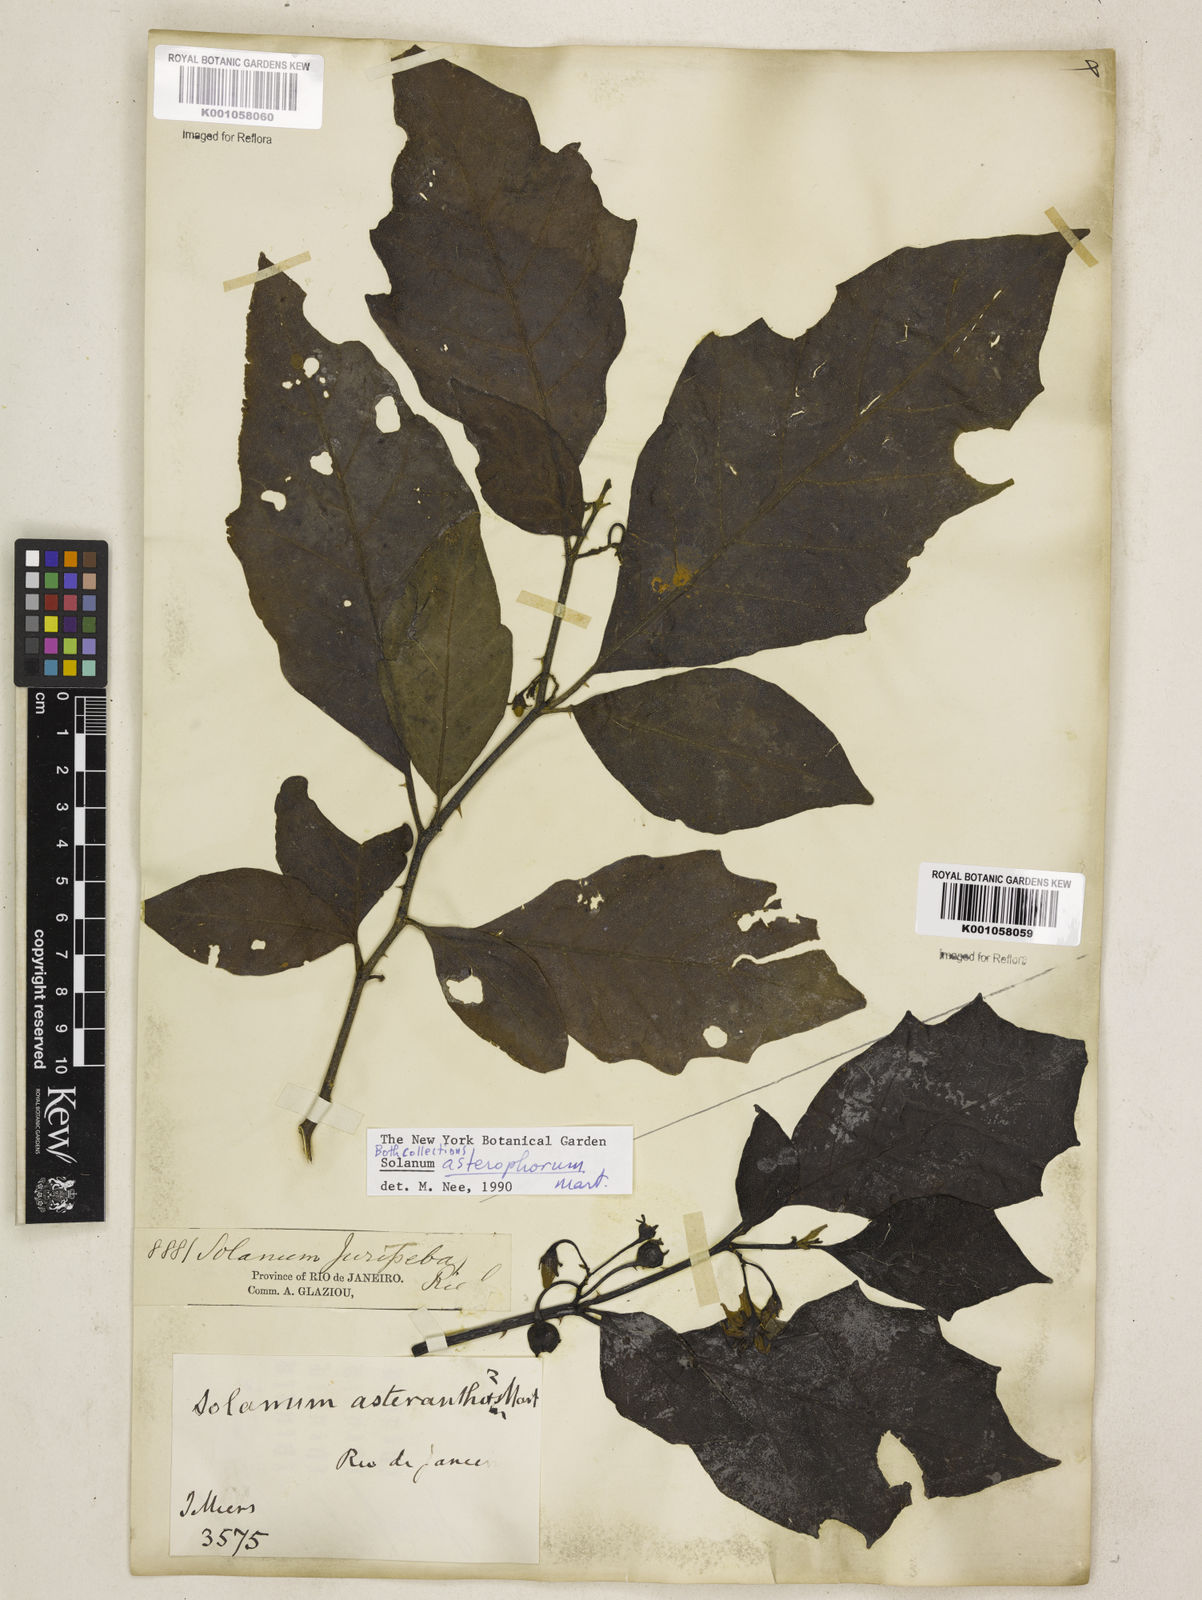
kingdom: Plantae
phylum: Tracheophyta
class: Magnoliopsida
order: Solanales
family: Solanaceae
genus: Solanum
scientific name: Solanum asterophorum
